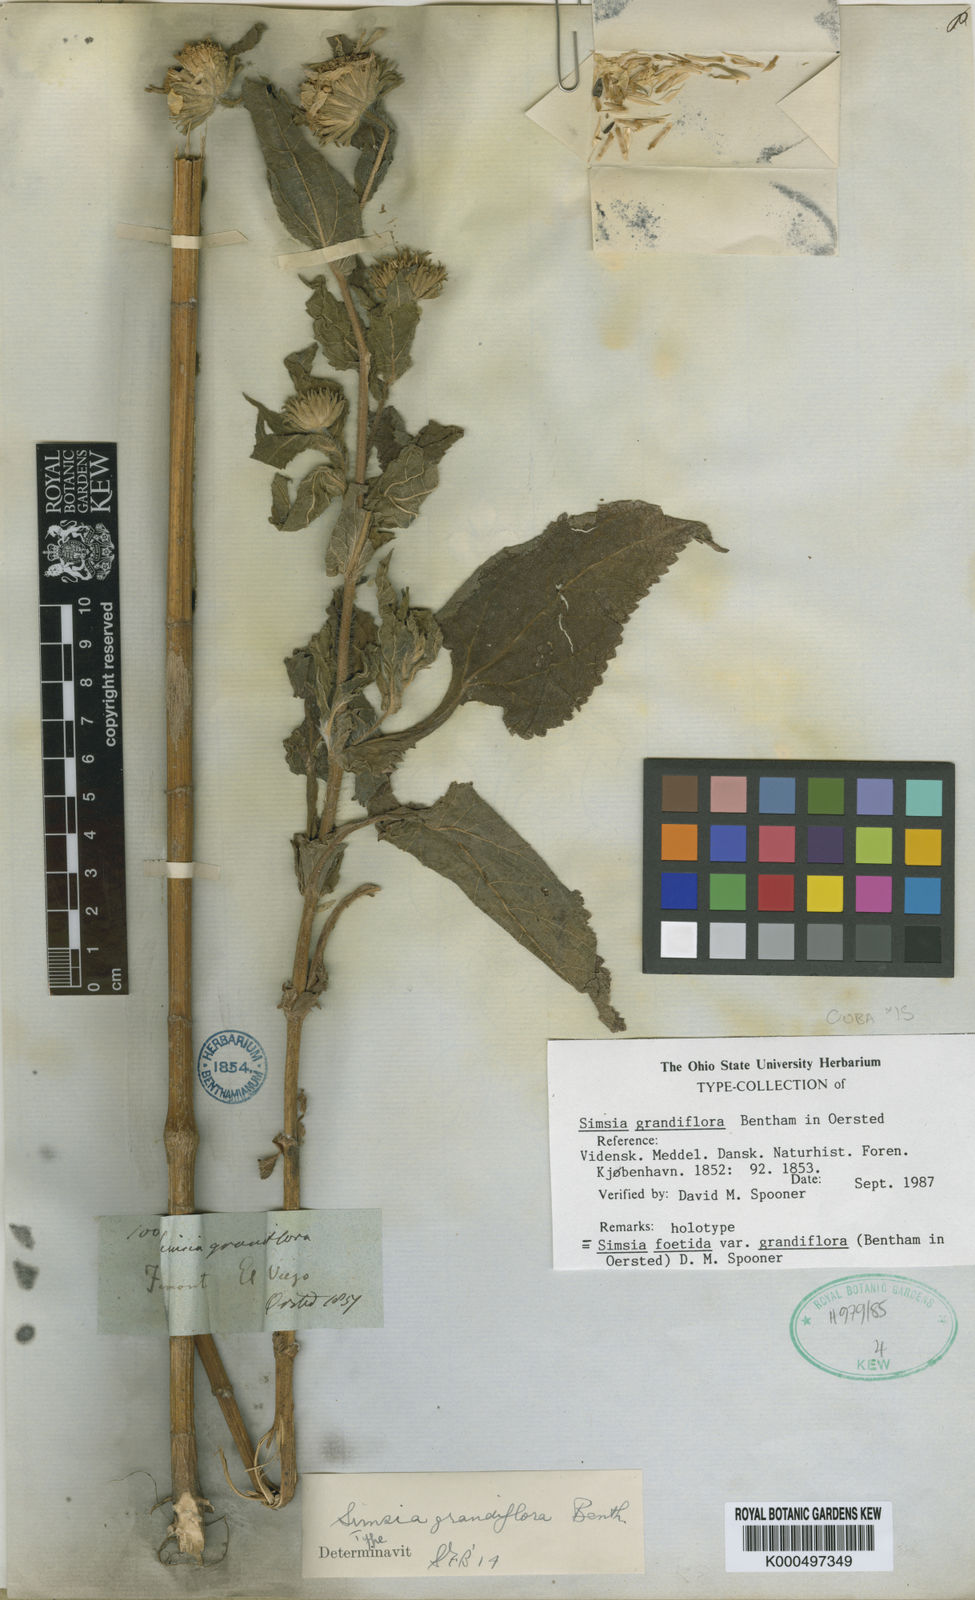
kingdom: Plantae
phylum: Tracheophyta
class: Magnoliopsida
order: Asterales
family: Asteraceae
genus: Simsia
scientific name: Simsia foetida
